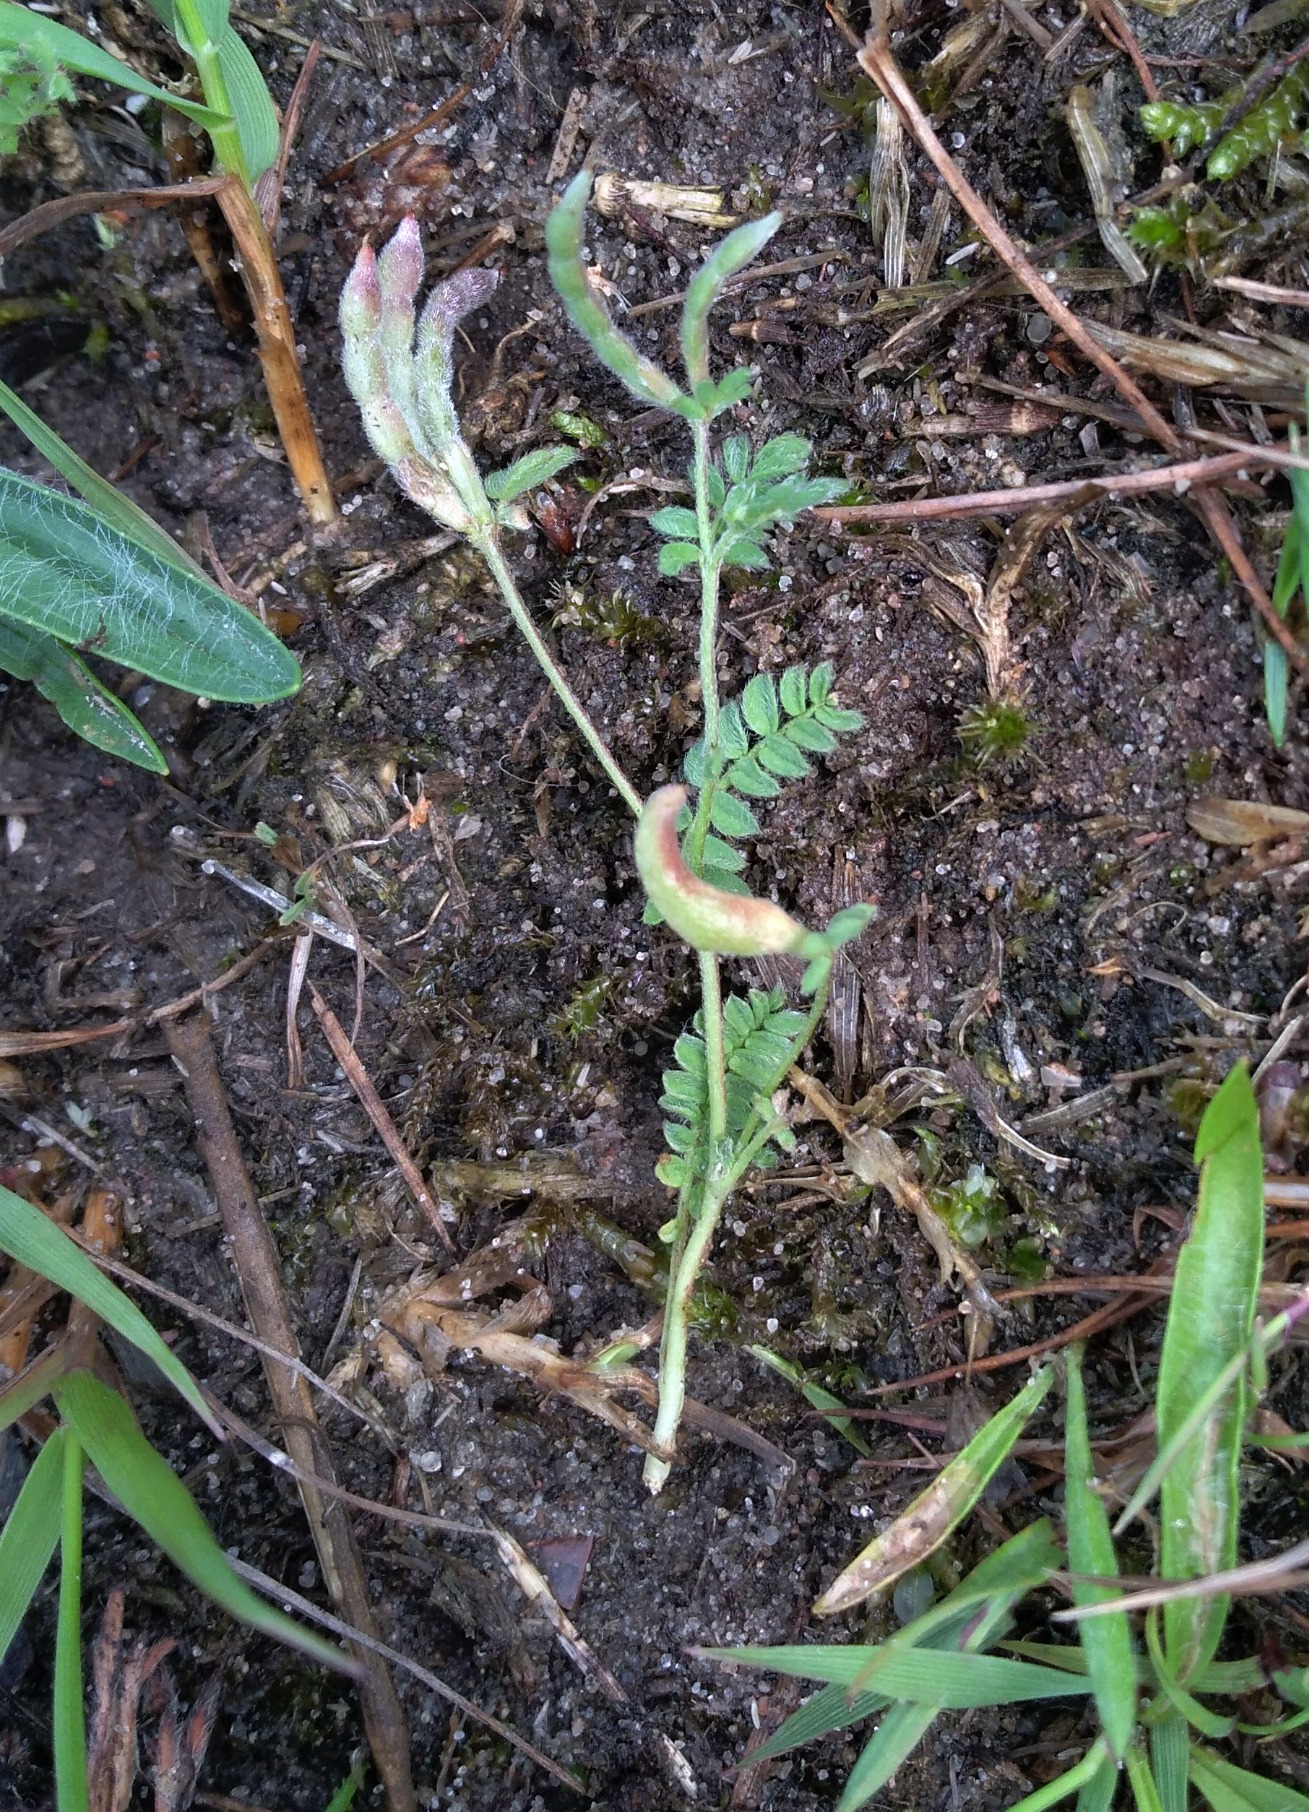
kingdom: Plantae
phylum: Tracheophyta
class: Magnoliopsida
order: Fabales
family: Fabaceae
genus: Ornithopus
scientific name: Ornithopus perpusillus
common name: Liden fugleklo
